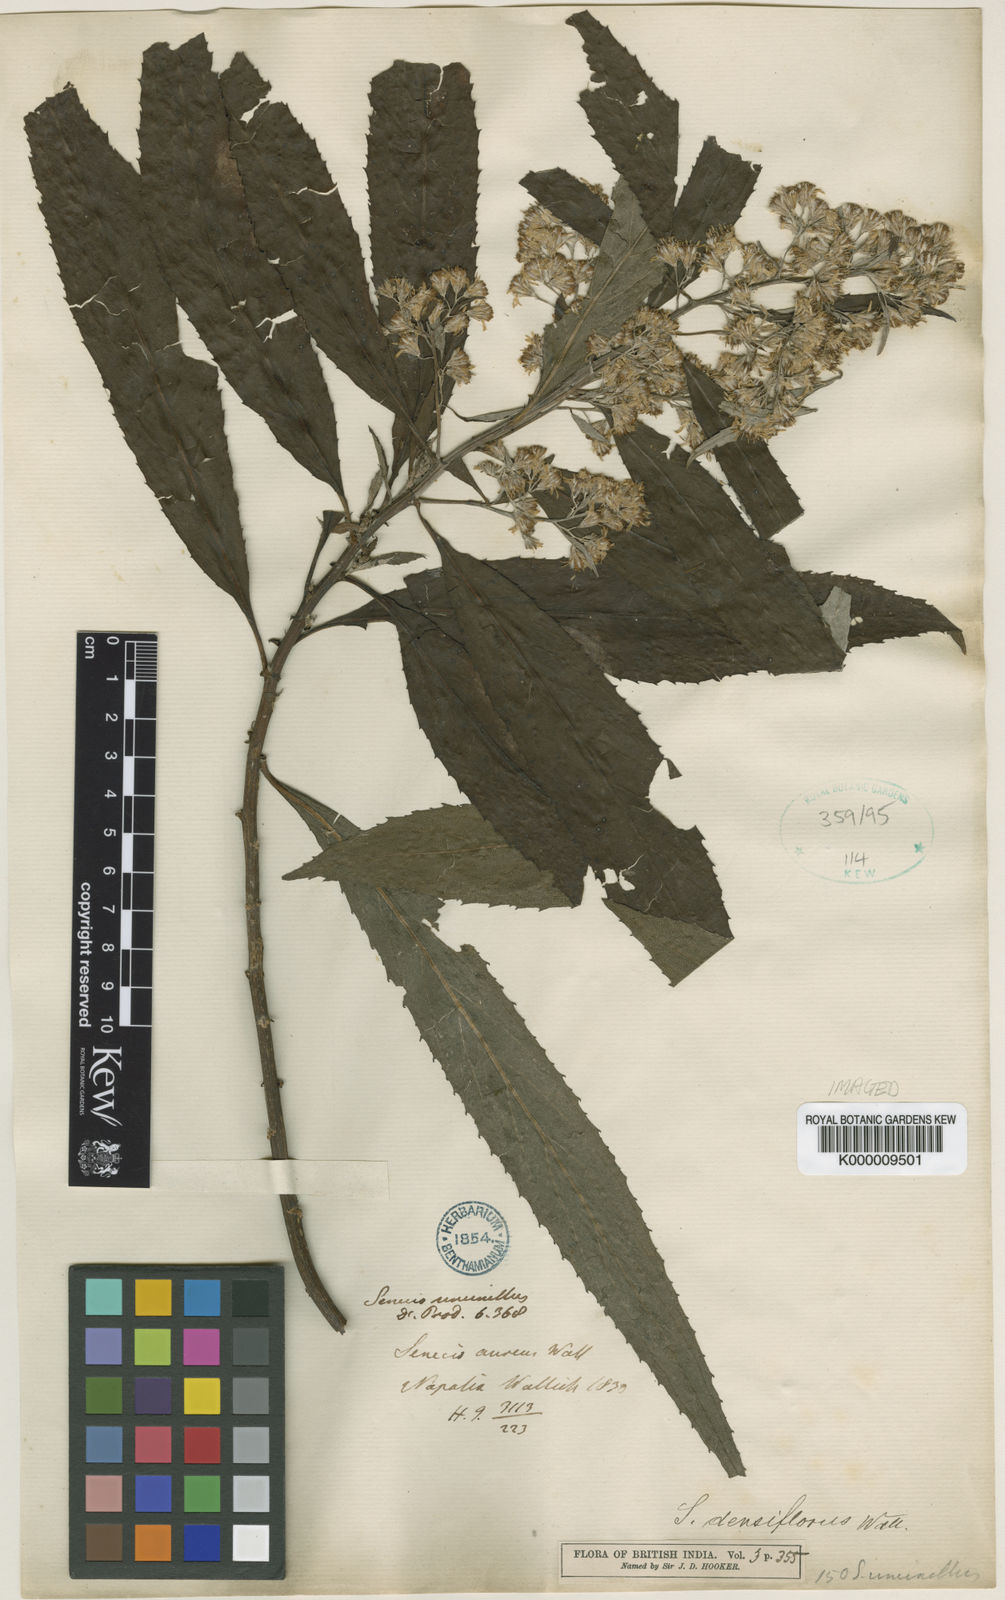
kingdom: Plantae
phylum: Tracheophyta
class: Magnoliopsida
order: Asterales
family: Asteraceae
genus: Synotis
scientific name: Synotis cappa
